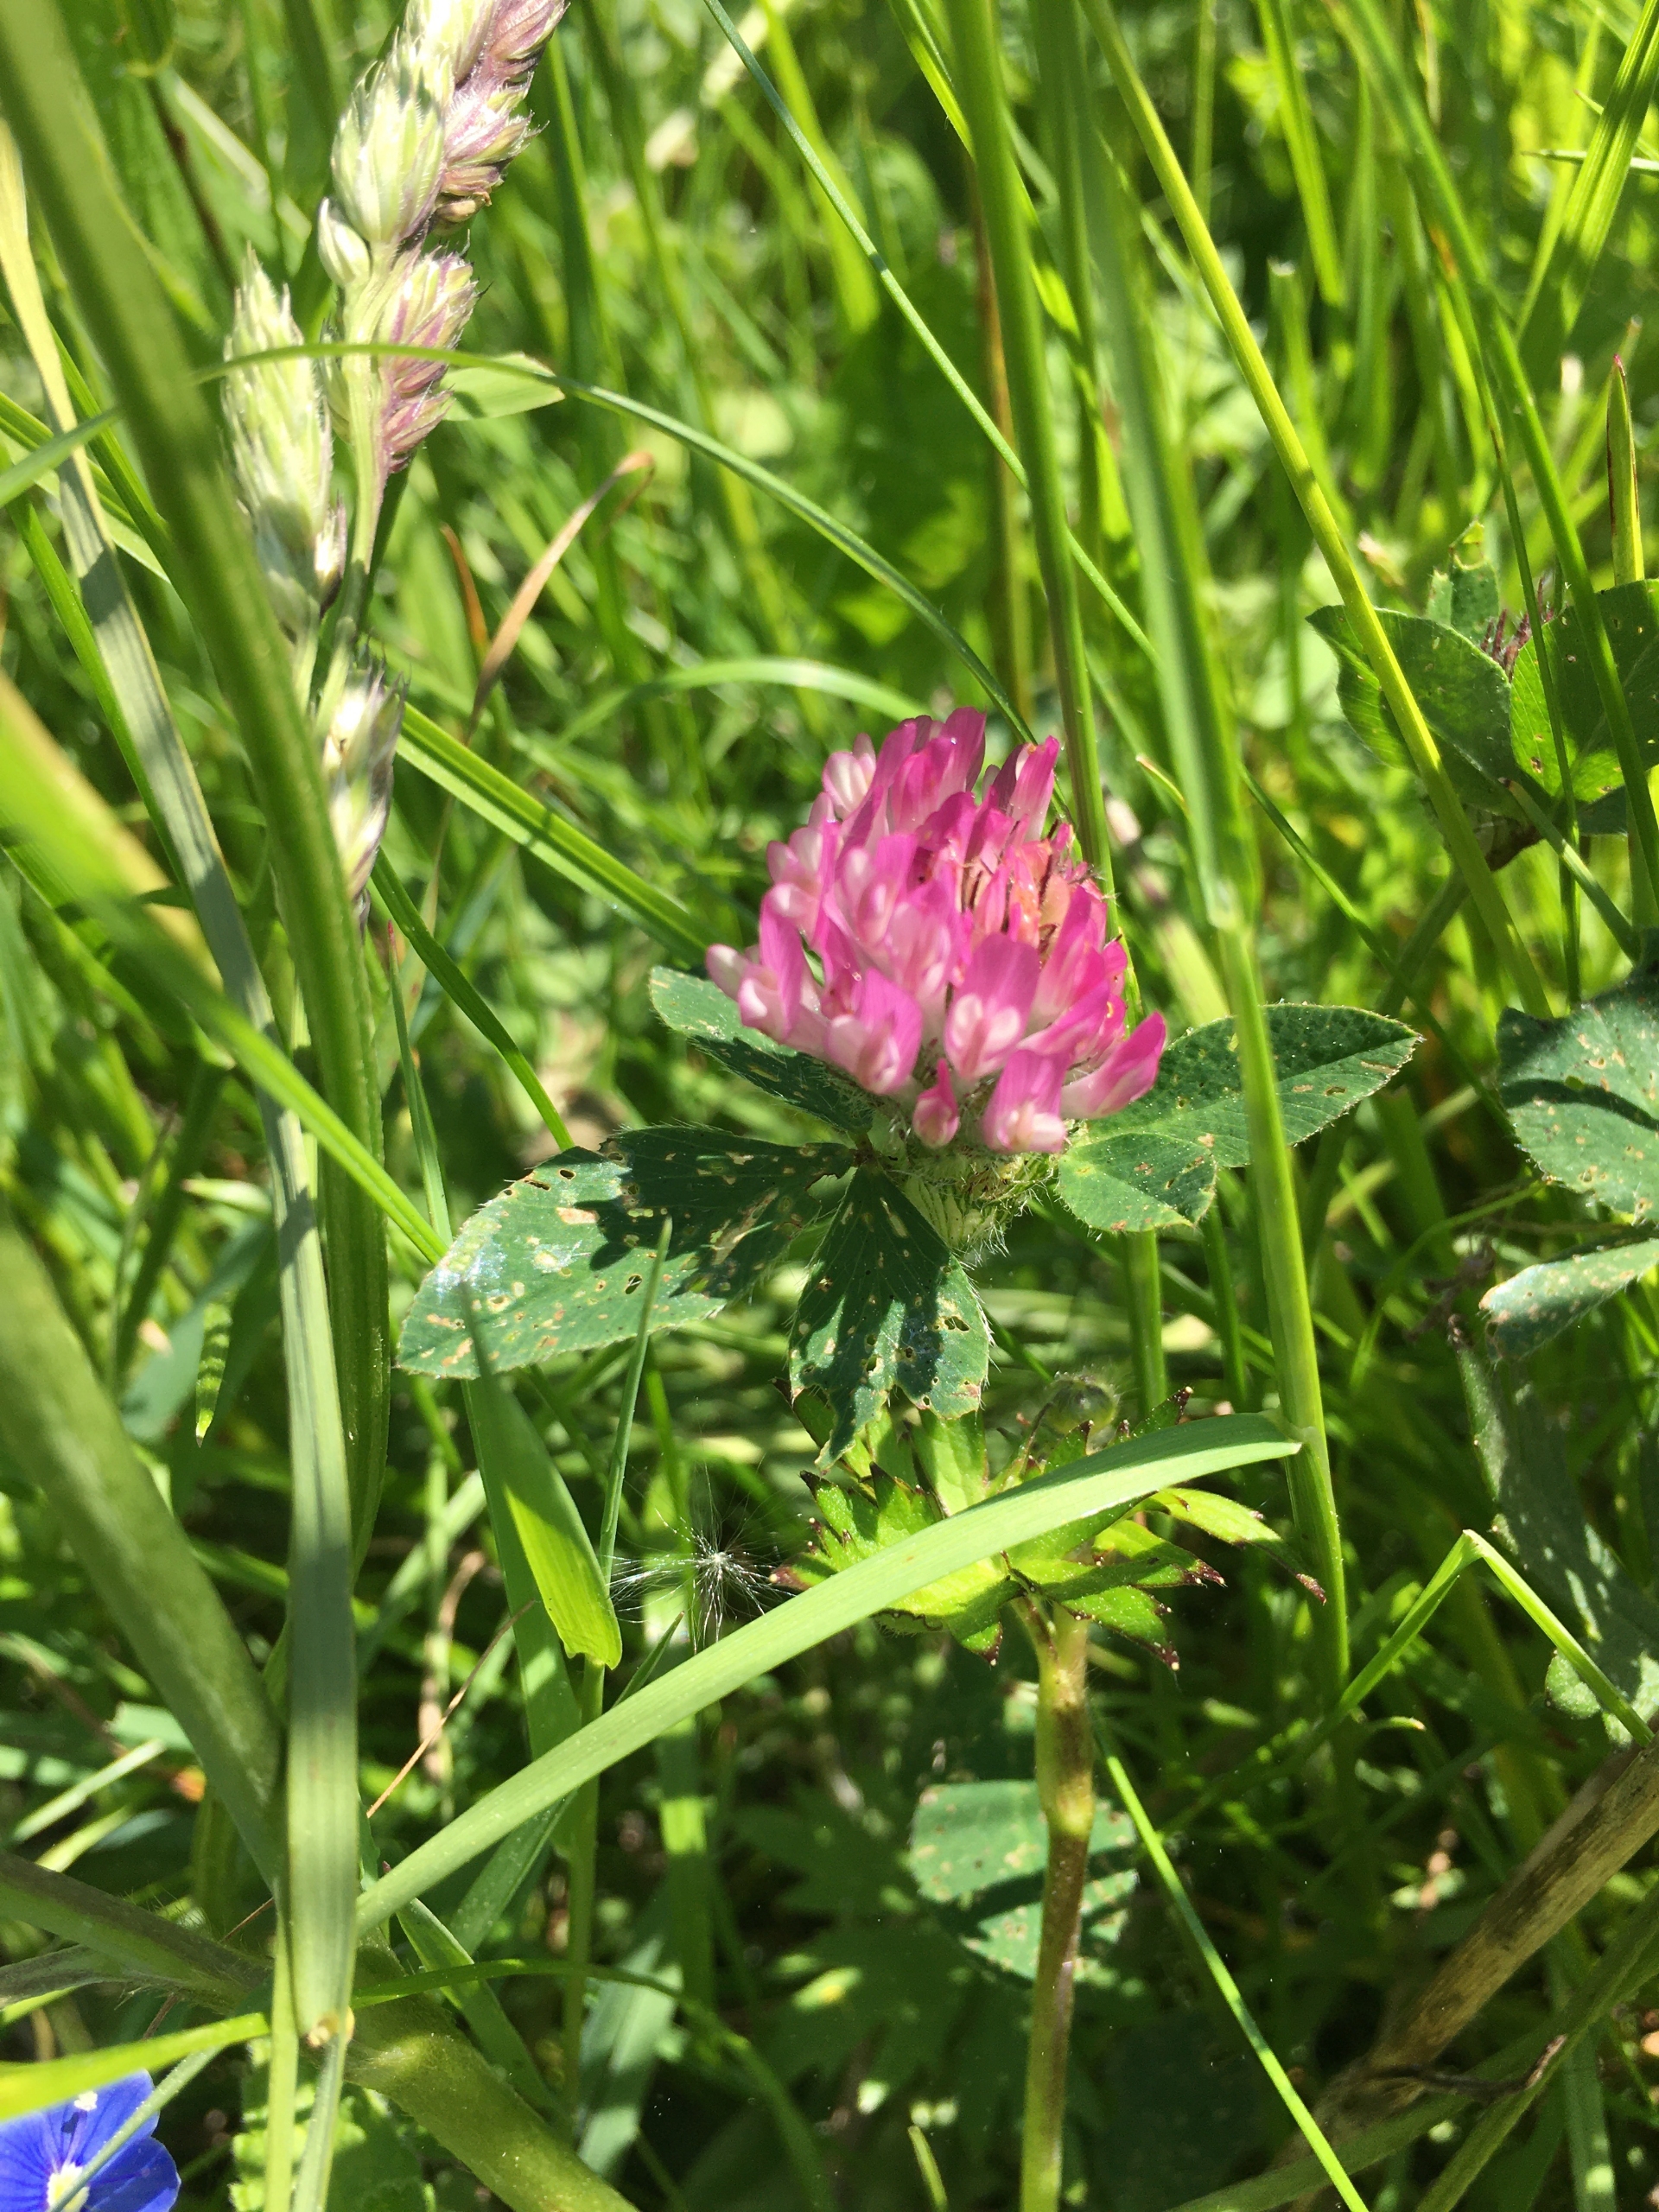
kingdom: Plantae
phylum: Tracheophyta
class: Magnoliopsida
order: Fabales
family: Fabaceae
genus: Trifolium
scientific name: Trifolium medium
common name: Bugtet kløver
